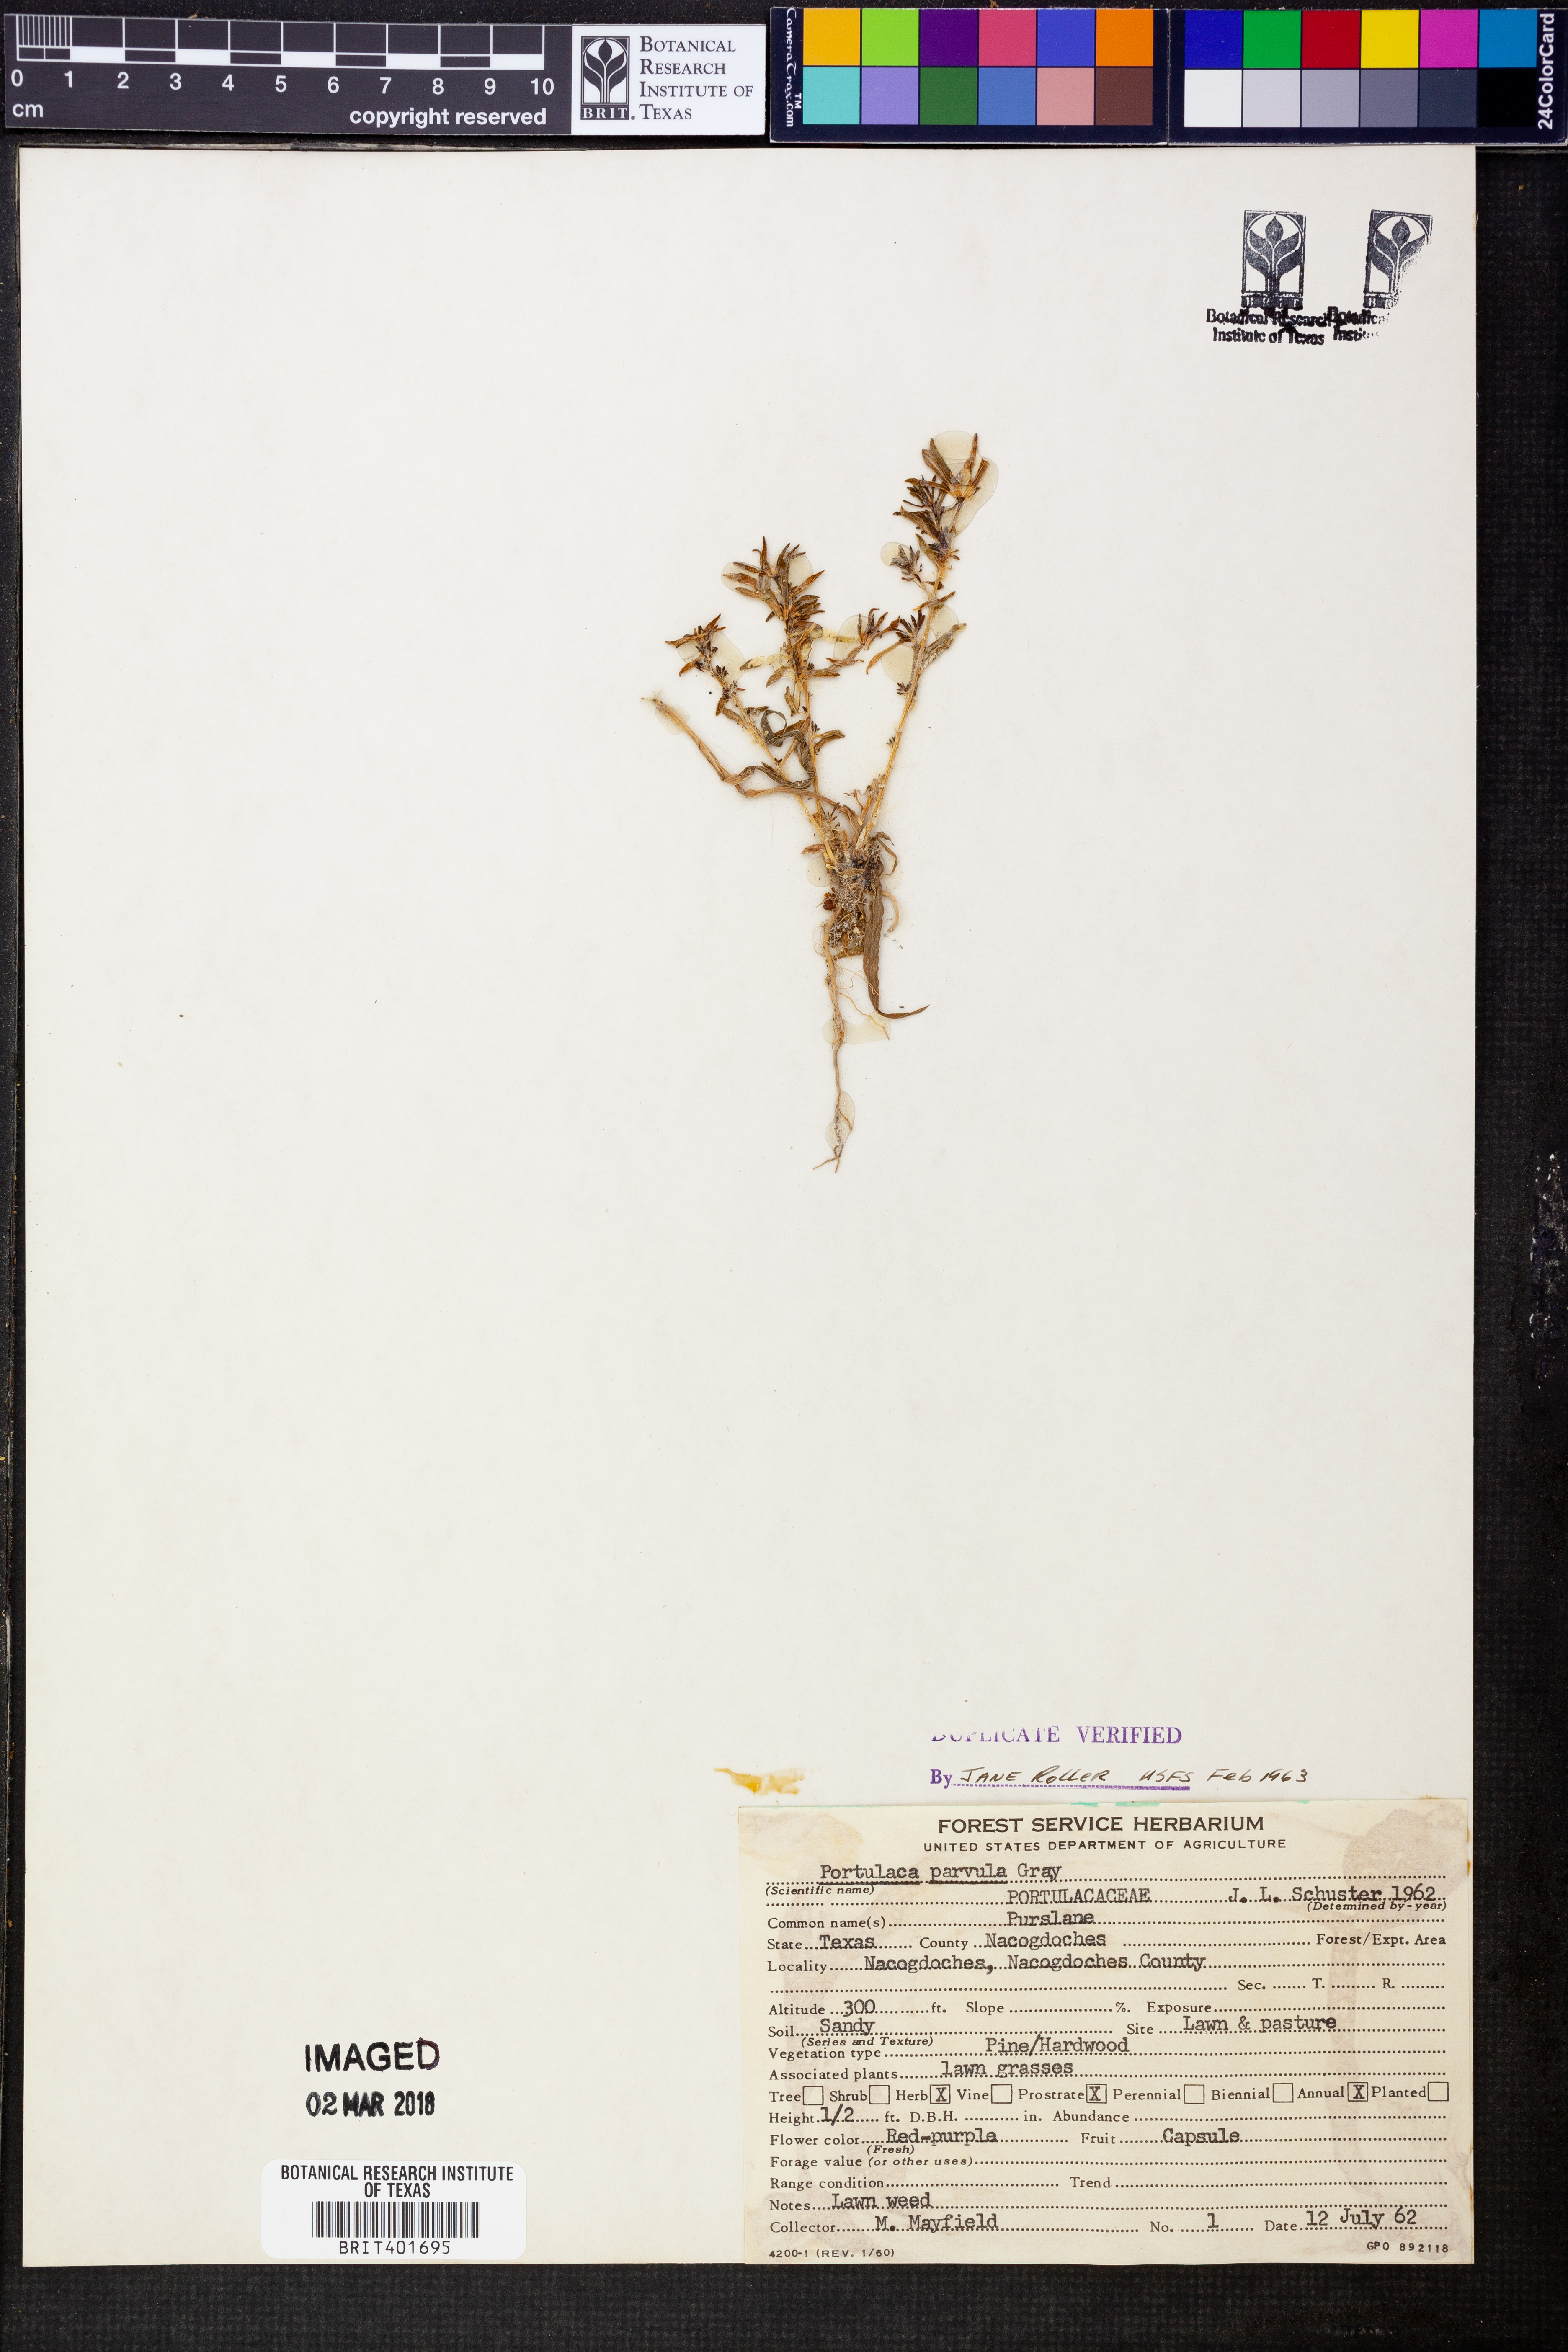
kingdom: Plantae
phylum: Tracheophyta
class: Magnoliopsida
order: Caryophyllales
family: Portulacaceae
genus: Portulaca
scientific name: Portulaca halimoides
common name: Silk cotton purslane
